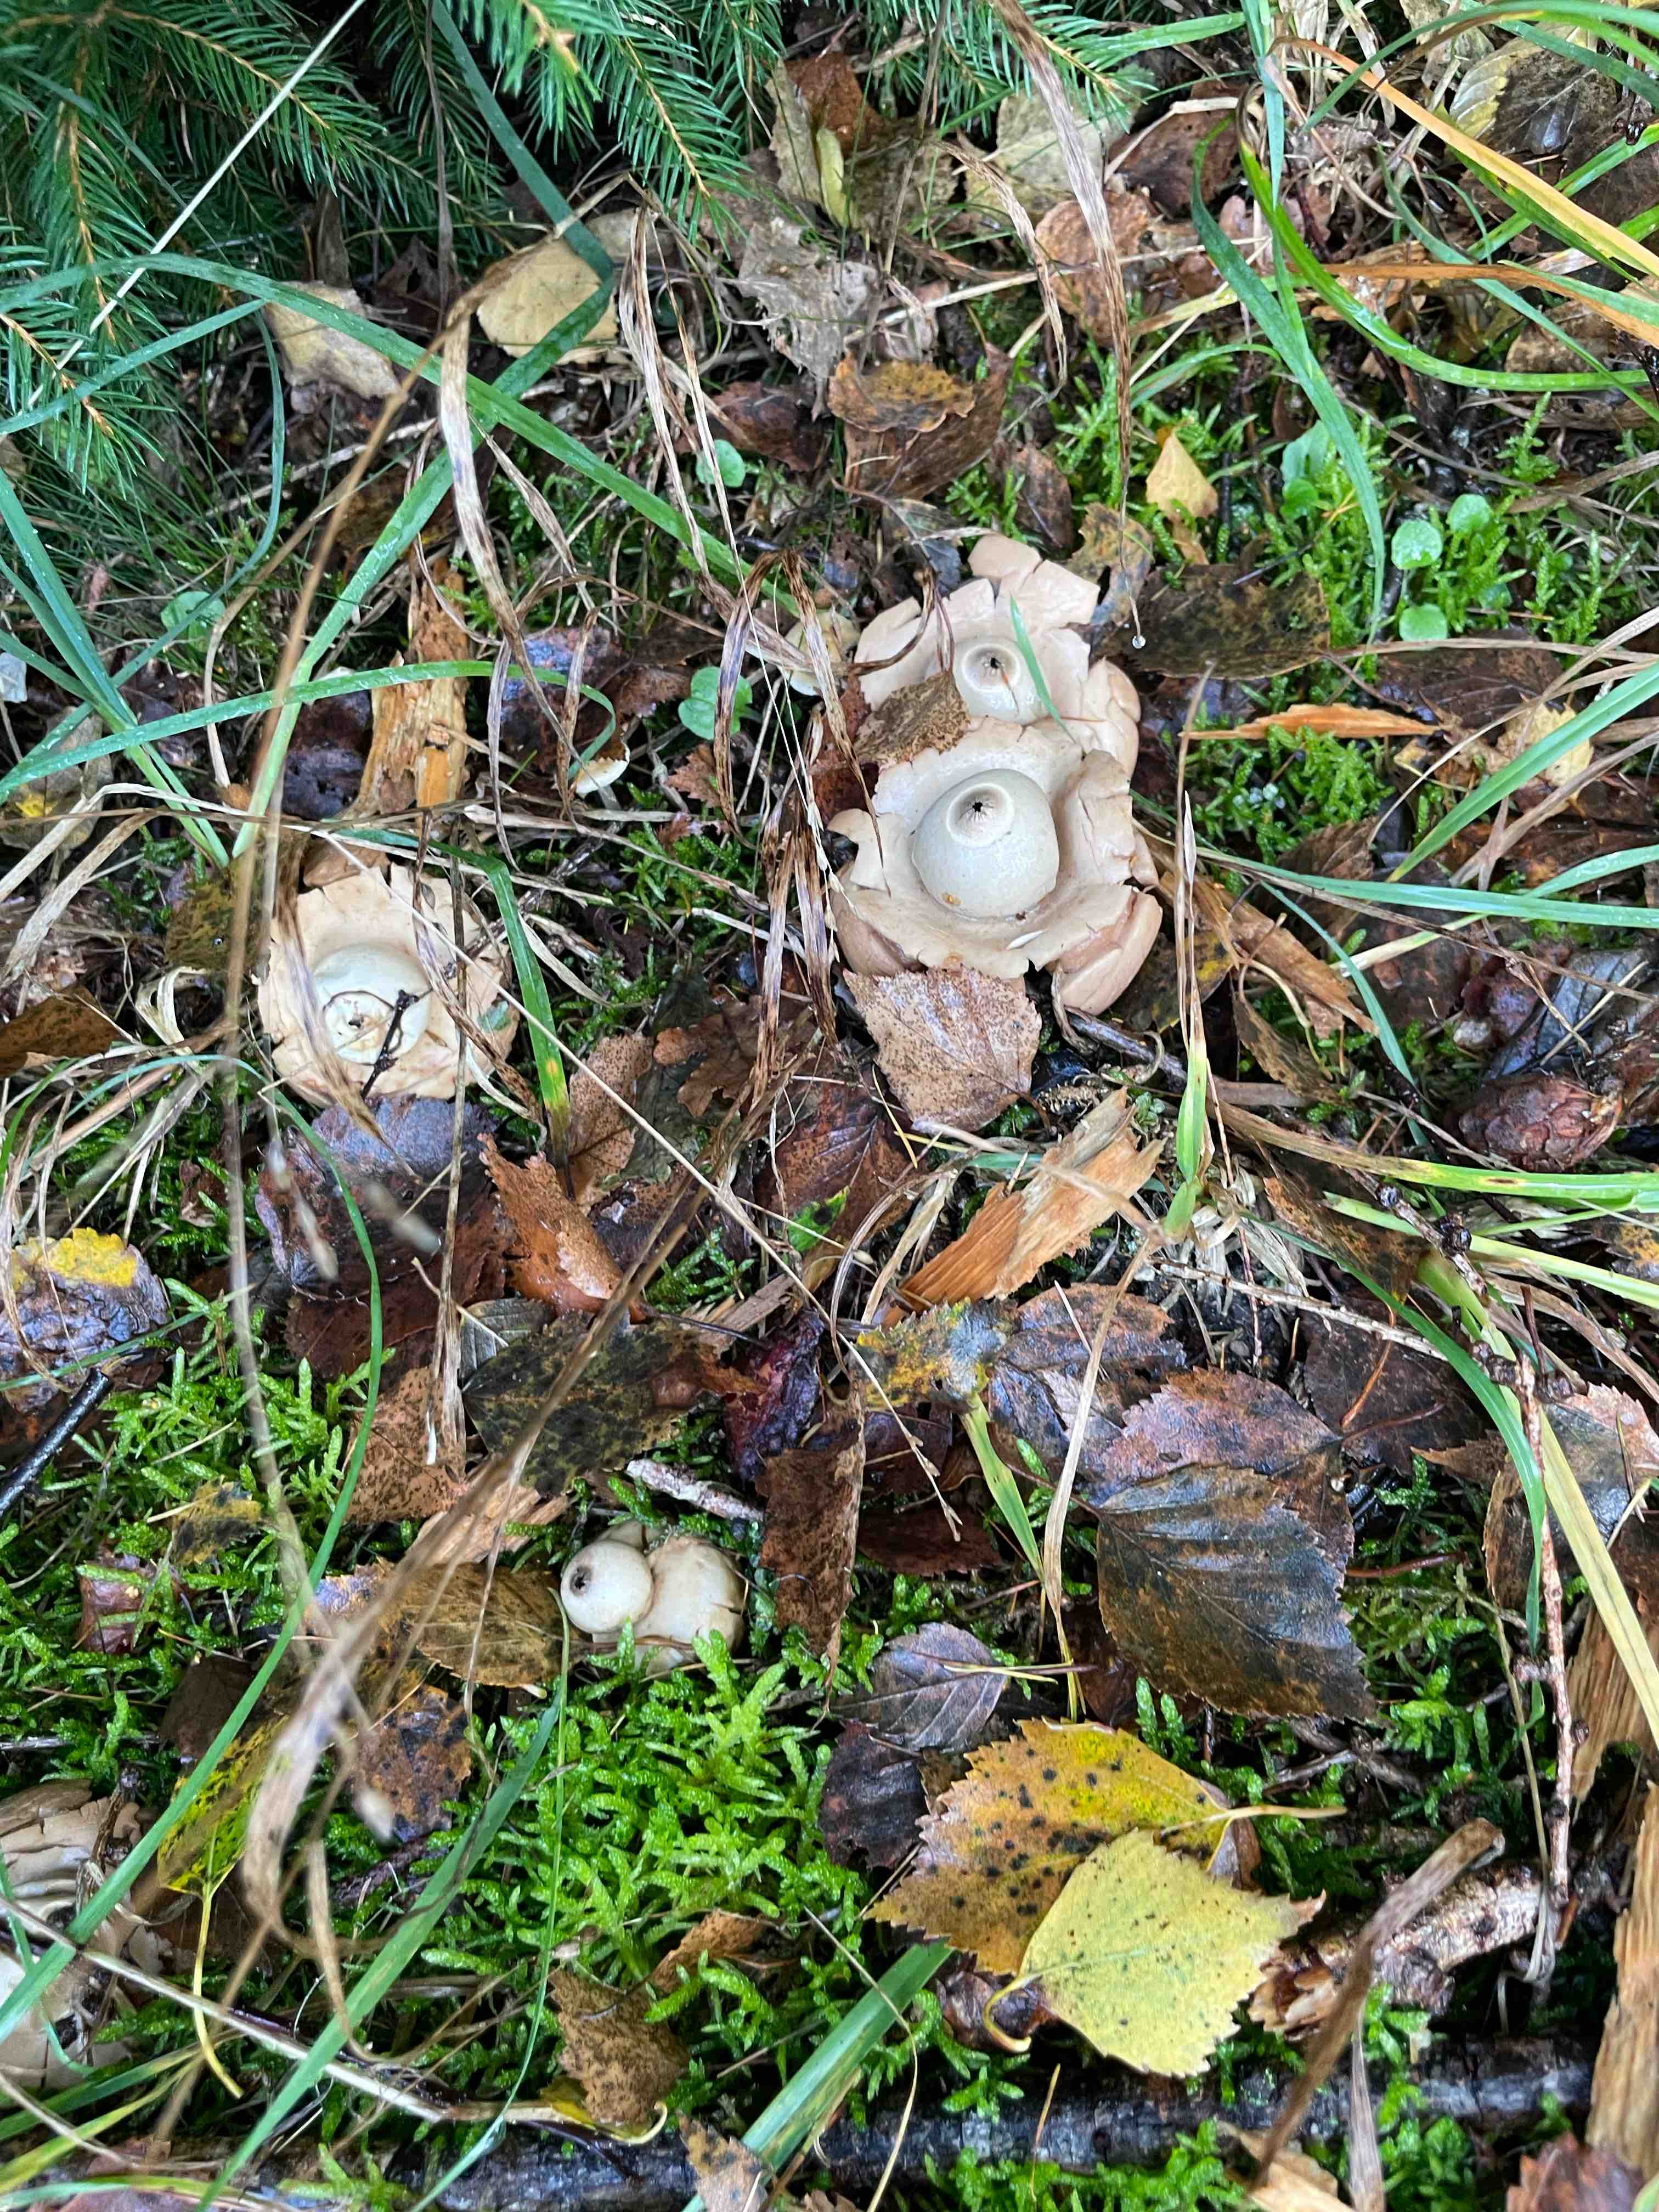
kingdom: Fungi
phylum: Basidiomycota
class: Agaricomycetes
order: Geastrales
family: Geastraceae
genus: Geastrum
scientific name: Geastrum michelianum
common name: kødet stjernebold
